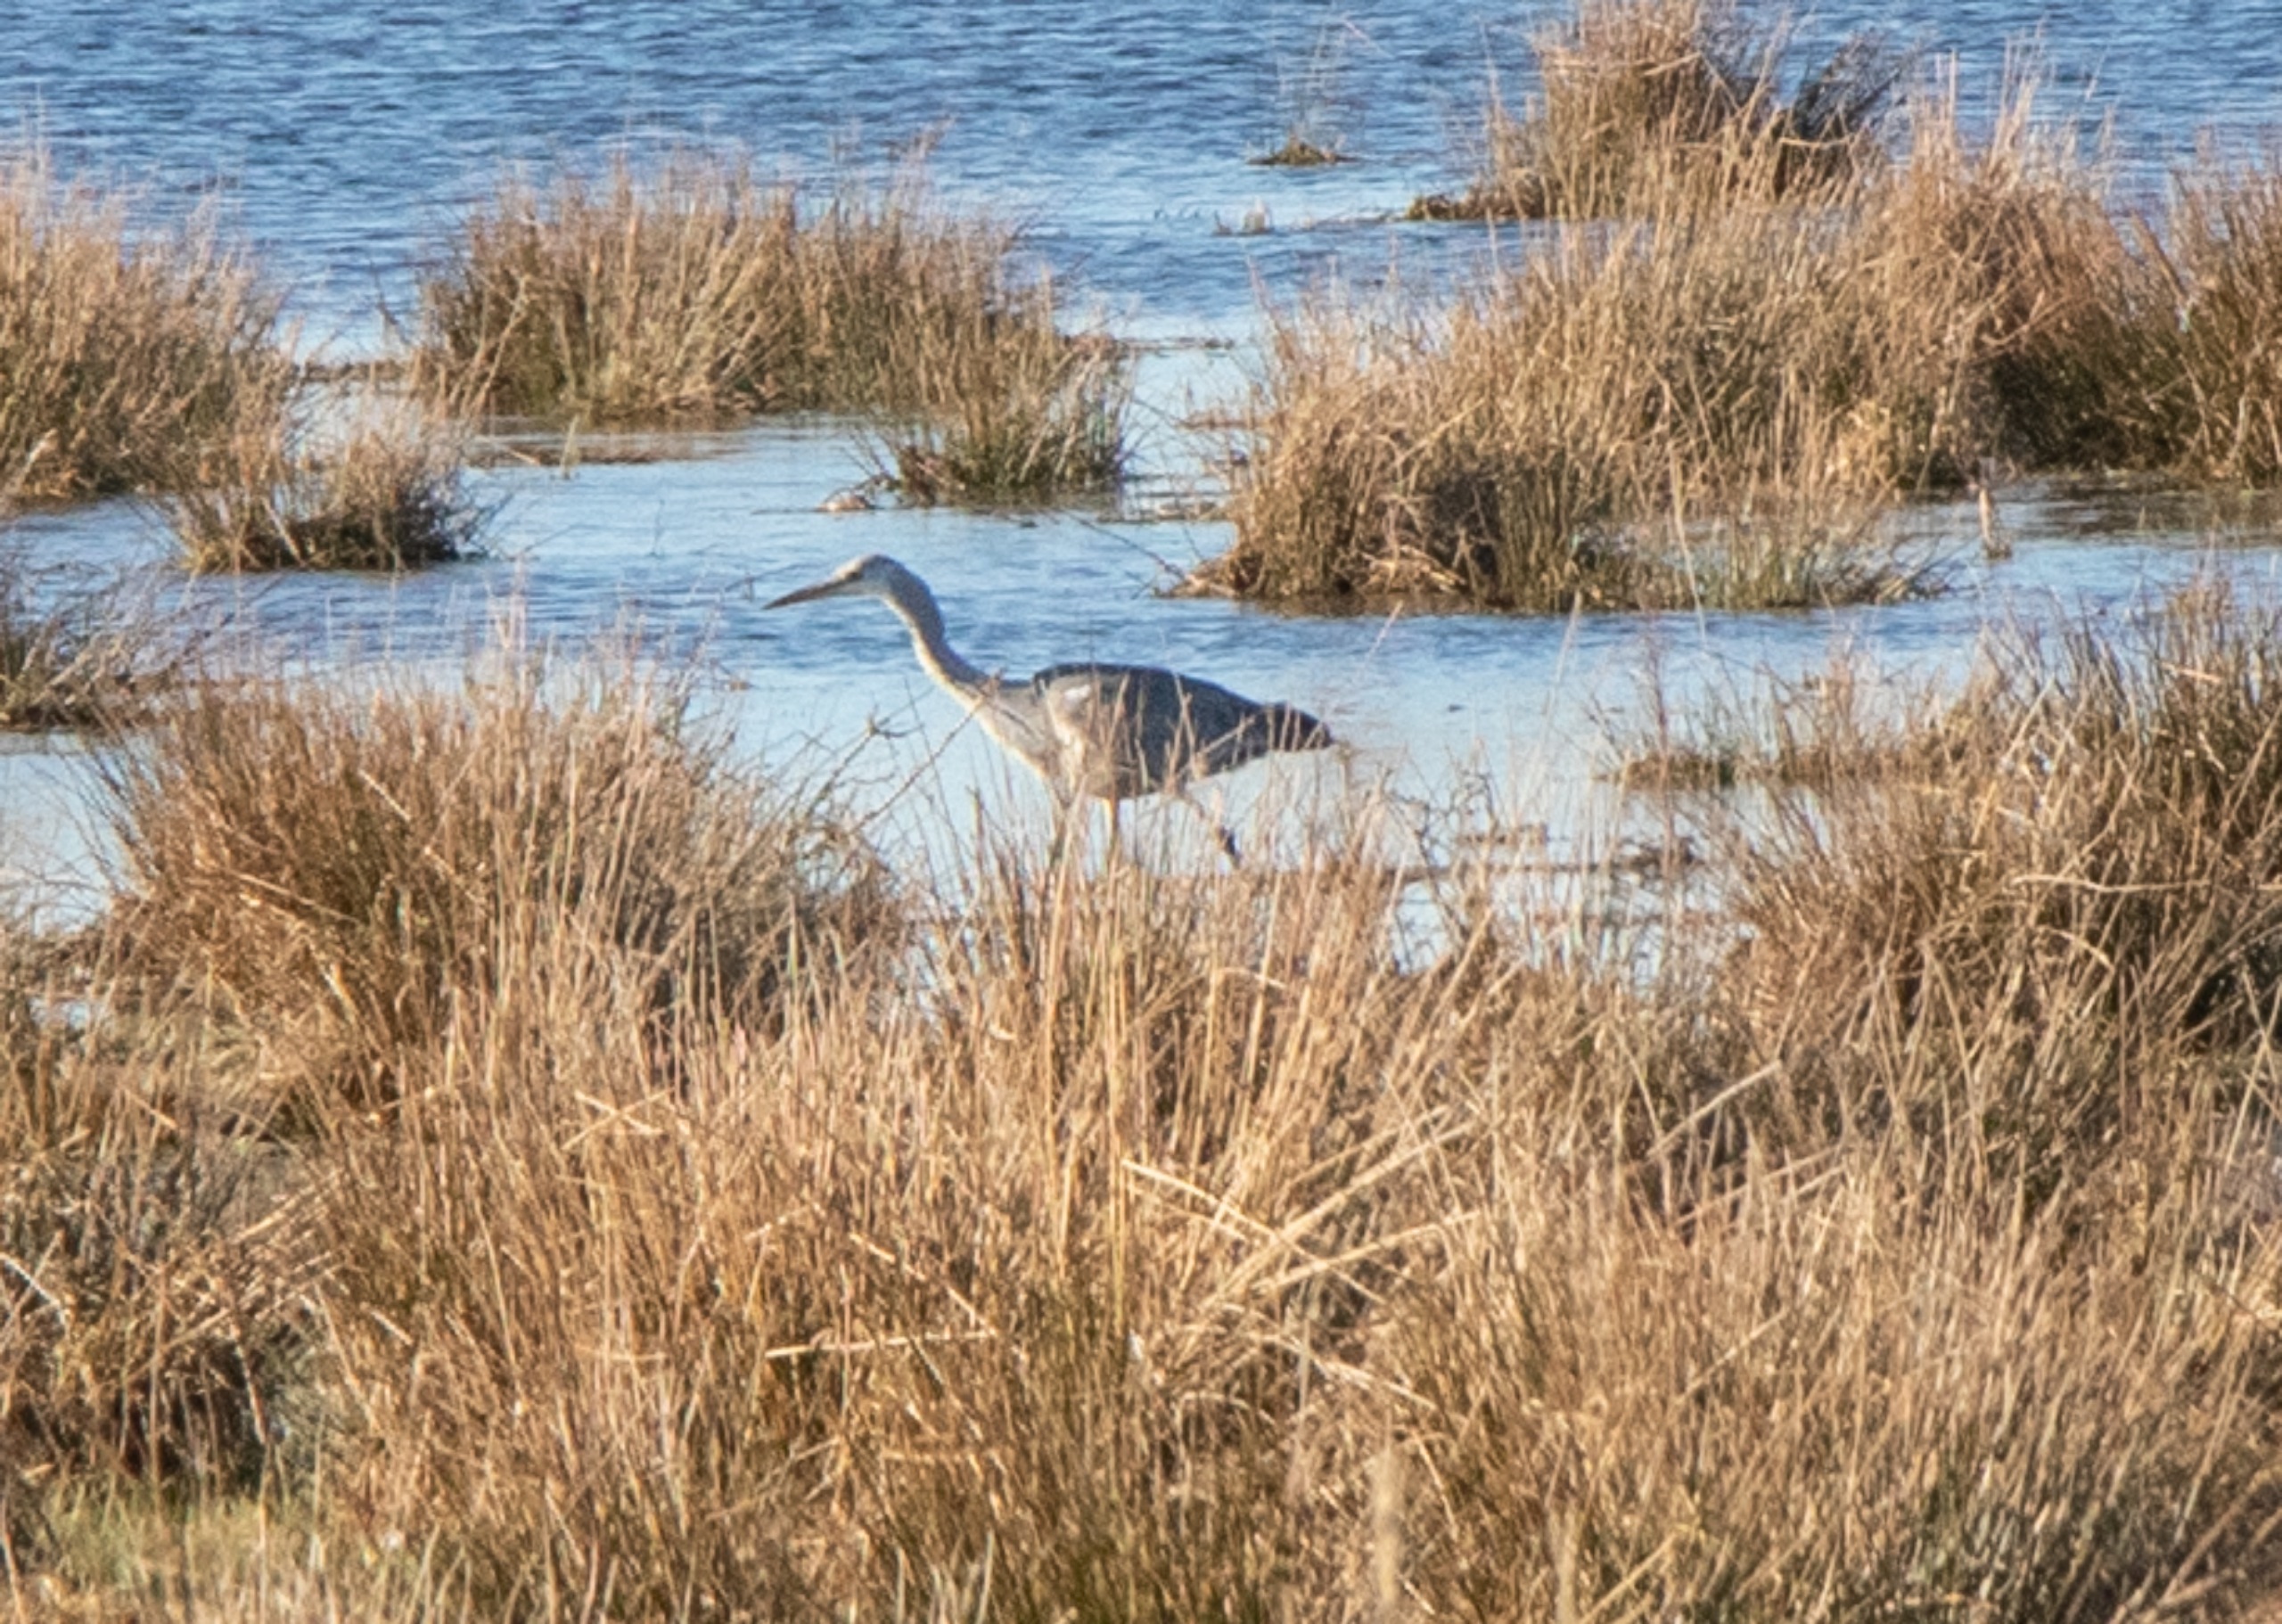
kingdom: Animalia
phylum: Chordata
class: Aves
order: Pelecaniformes
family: Ardeidae
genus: Ardea
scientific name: Ardea cinerea
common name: Fiskehejre
